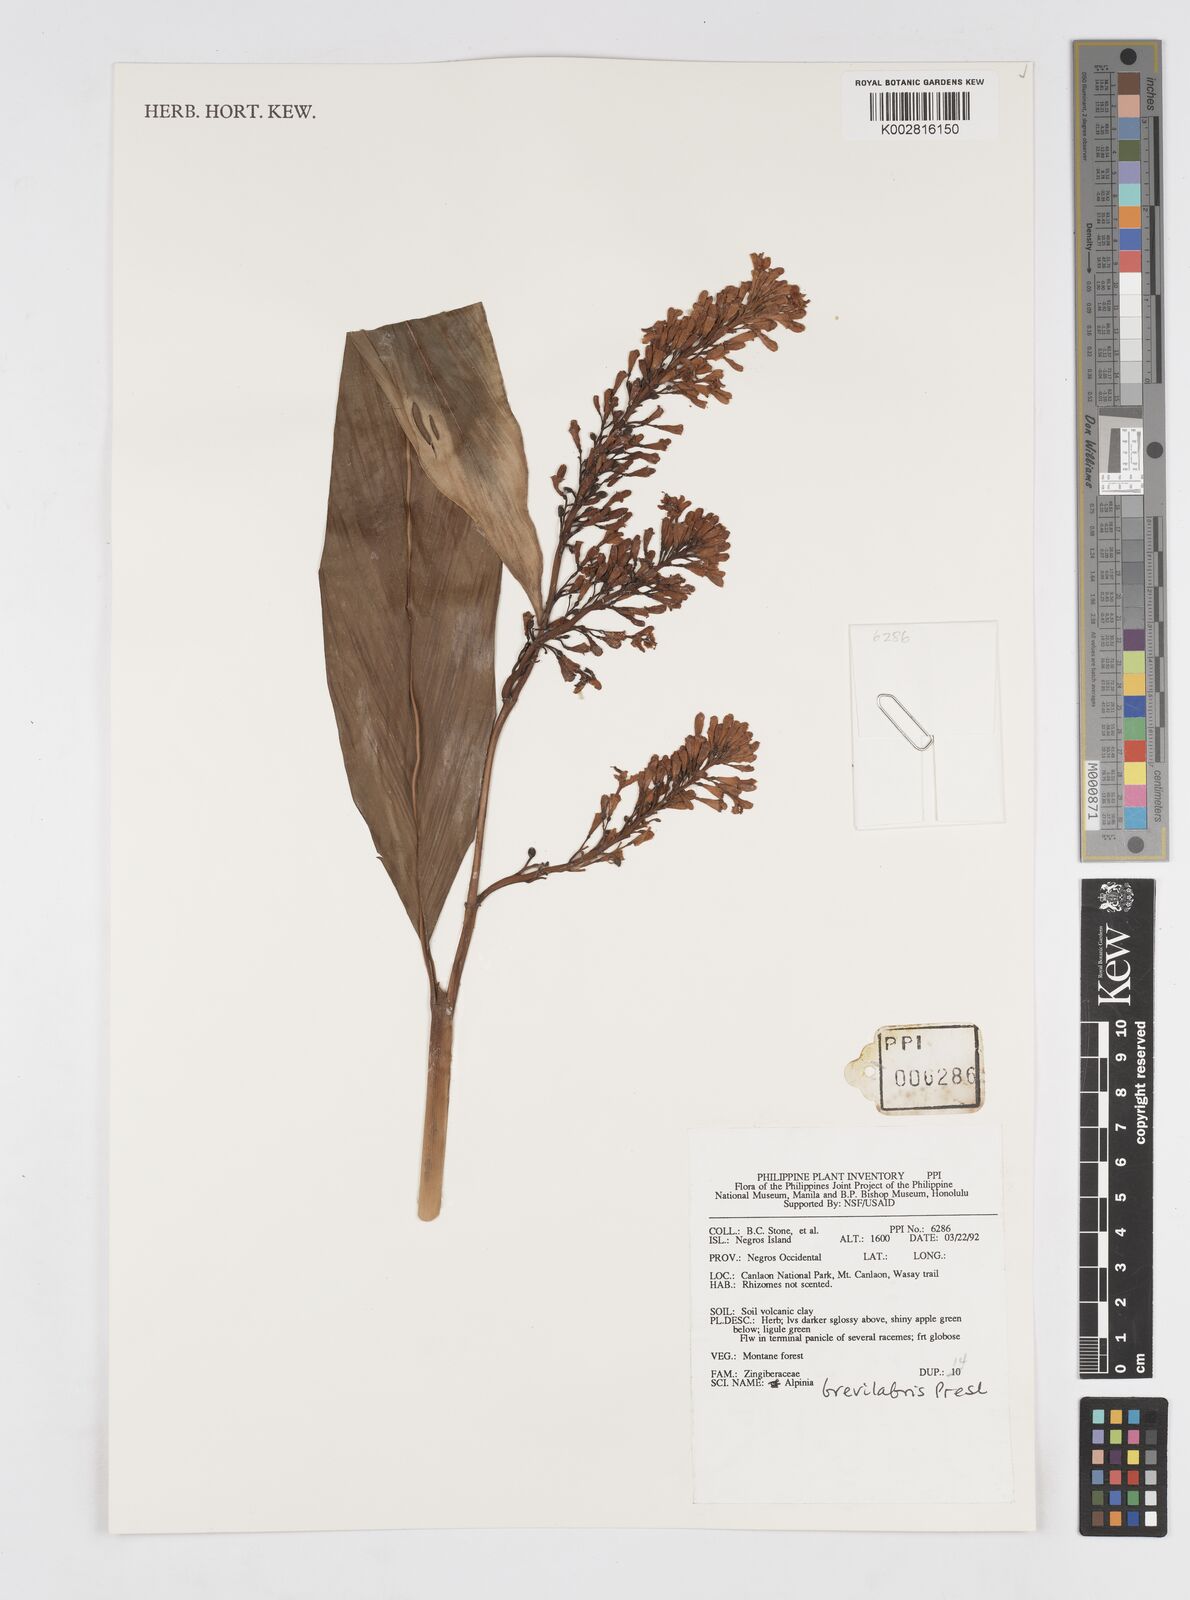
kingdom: Plantae
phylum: Tracheophyta
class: Liliopsida
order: Zingiberales
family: Zingiberaceae
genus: Alpinia
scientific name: Alpinia brevilabris
